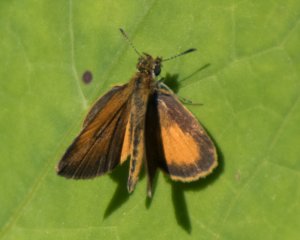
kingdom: Animalia
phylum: Arthropoda
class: Insecta
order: Lepidoptera
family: Hesperiidae
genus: Ancyloxypha
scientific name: Ancyloxypha numitor
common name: Least Skipper
